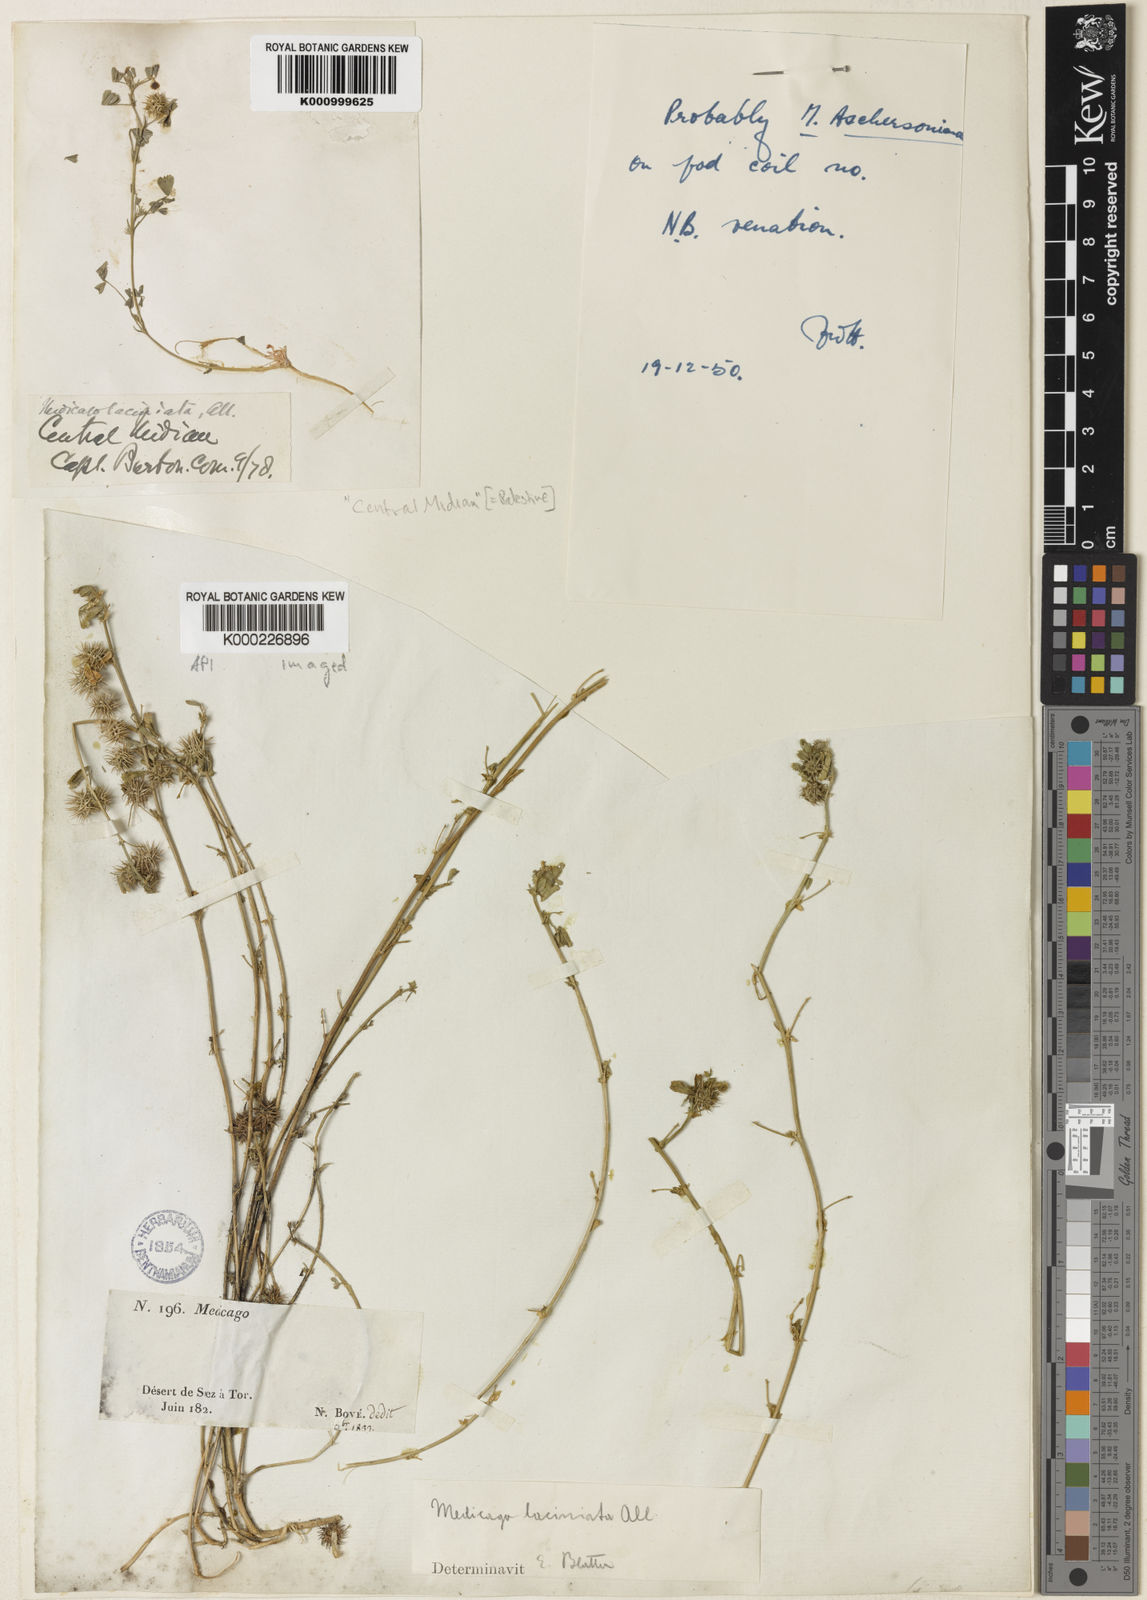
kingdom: Plantae
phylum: Tracheophyta
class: Magnoliopsida
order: Fabales
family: Fabaceae
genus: Medicago
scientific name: Medicago
